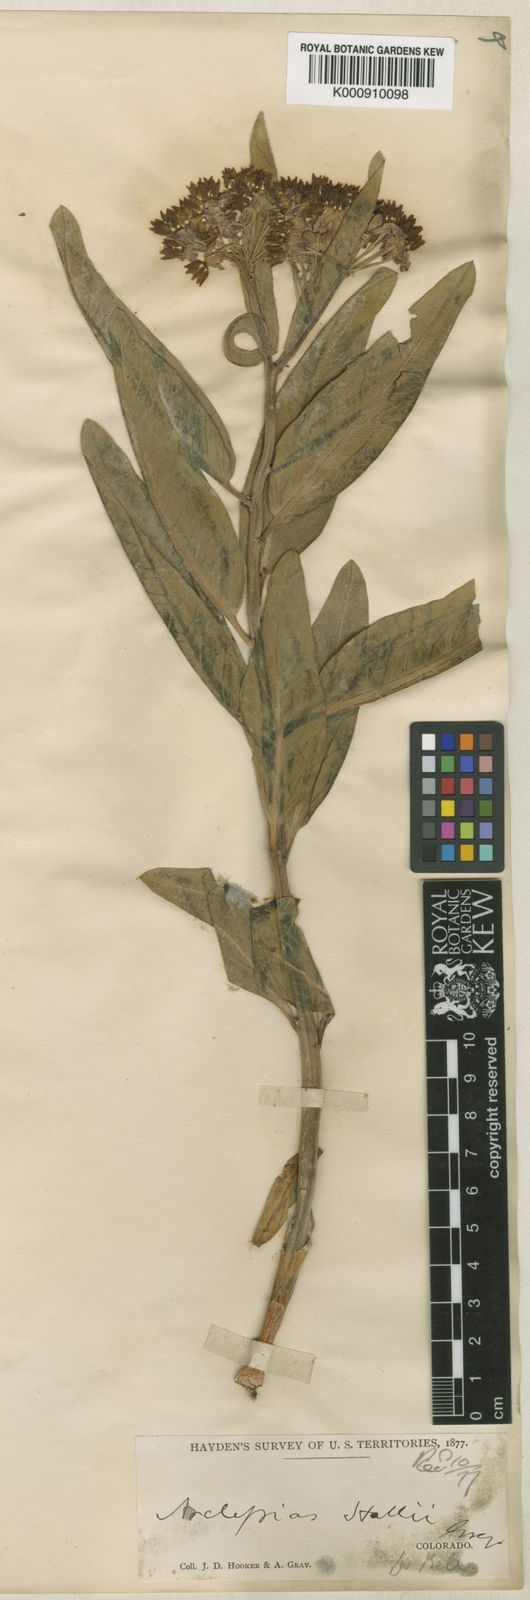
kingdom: Plantae
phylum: Tracheophyta
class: Magnoliopsida
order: Gentianales
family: Apocynaceae
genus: Asclepias
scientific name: Asclepias hallii
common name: Hall's milkweed
